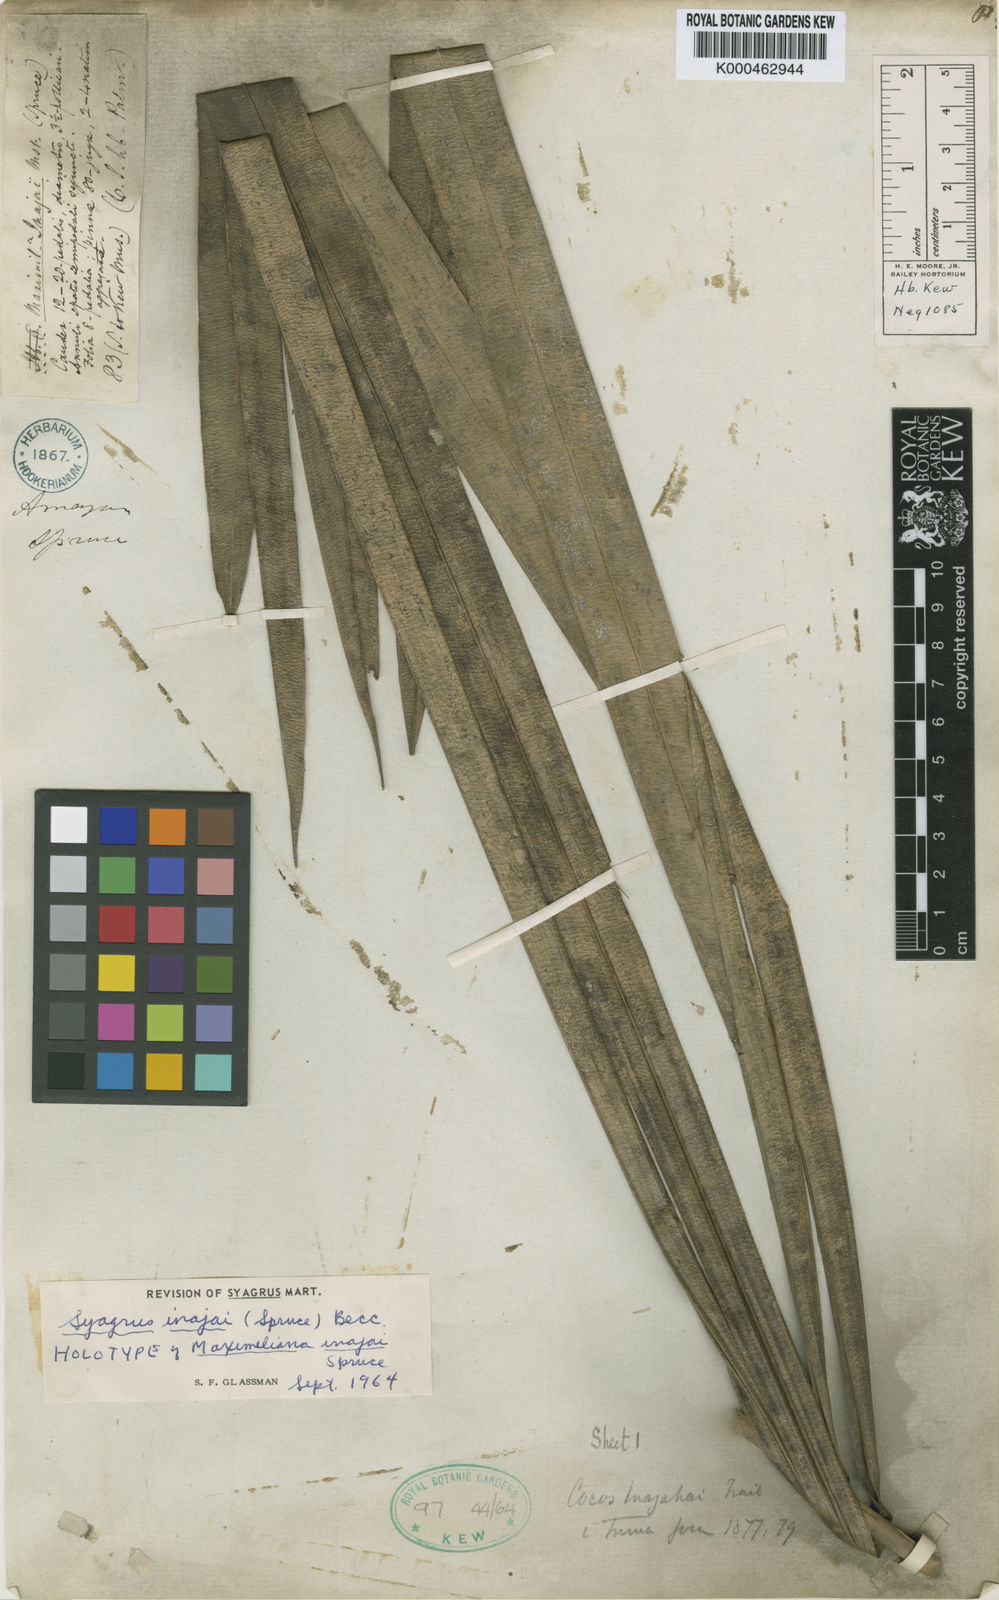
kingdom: Plantae
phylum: Tracheophyta
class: Liliopsida
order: Arecales
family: Arecaceae
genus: Syagrus
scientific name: Syagrus inajai
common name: Pupunha palm
